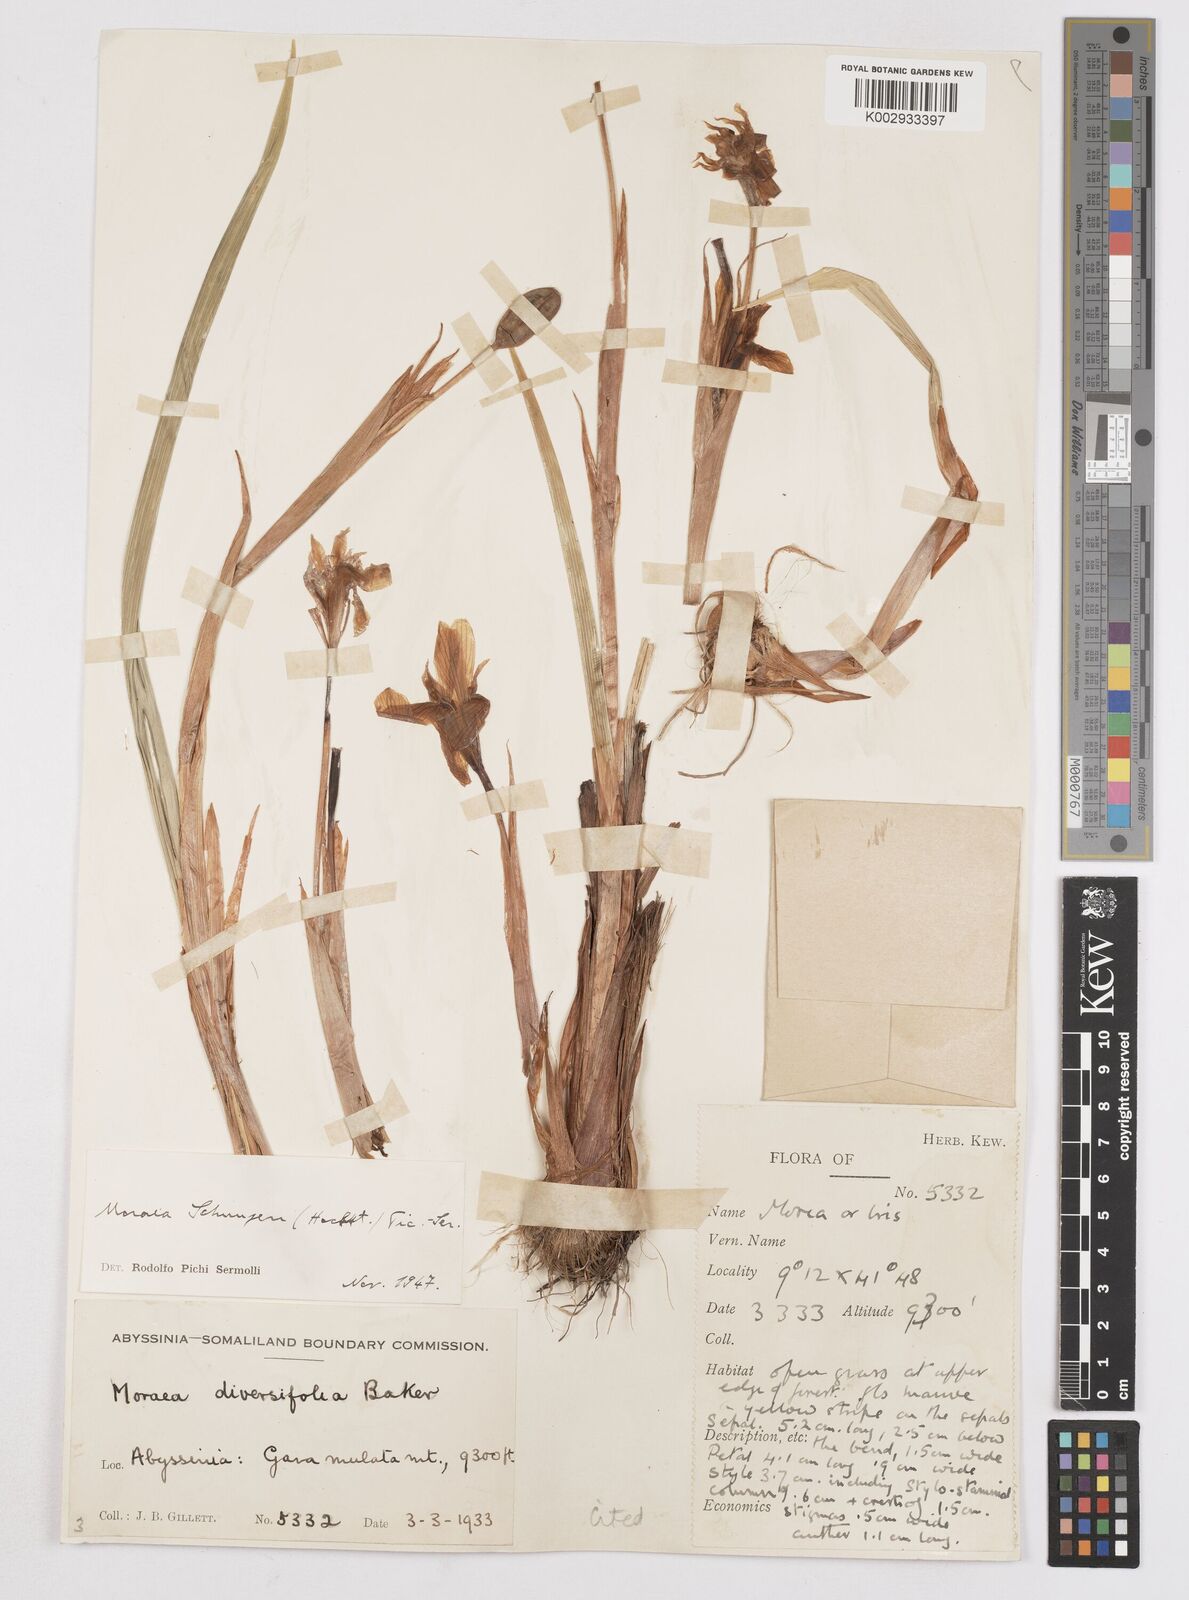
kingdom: Plantae
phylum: Tracheophyta
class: Liliopsida
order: Asparagales
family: Iridaceae
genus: Moraea
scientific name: Moraea schimperi
